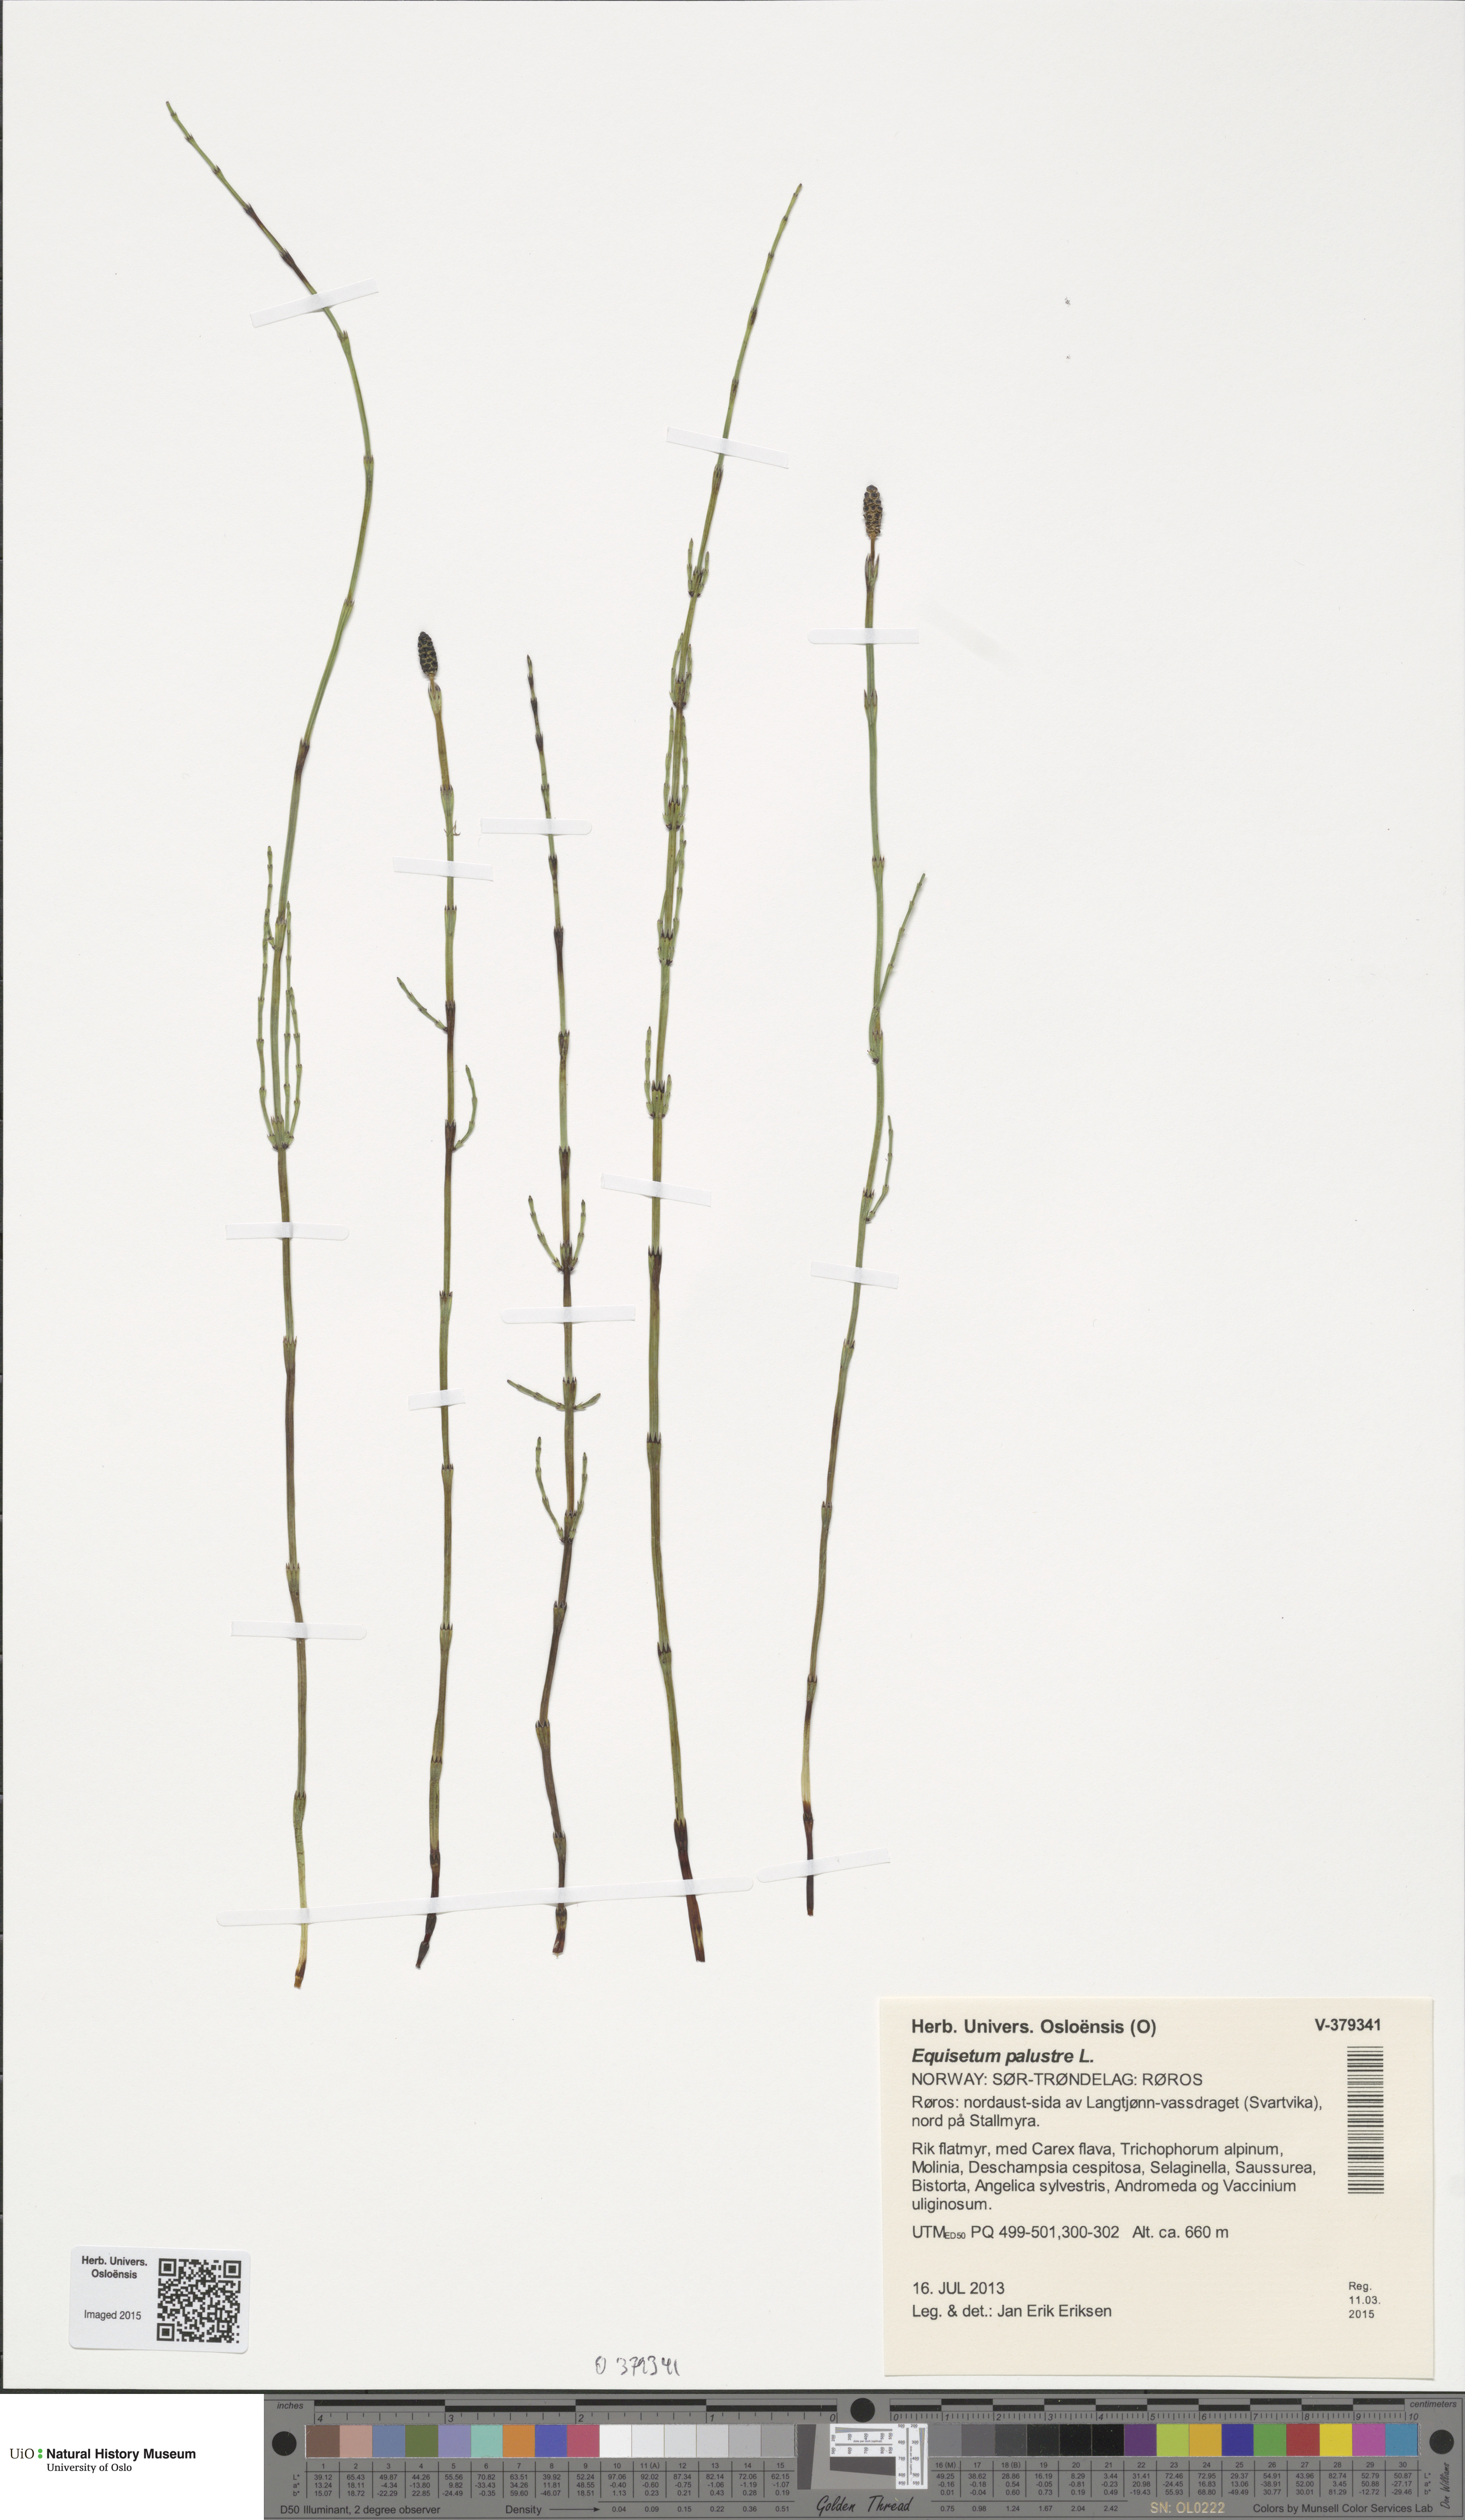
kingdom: Plantae
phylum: Tracheophyta
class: Polypodiopsida
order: Equisetales
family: Equisetaceae
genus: Equisetum
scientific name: Equisetum palustre
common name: Marsh horsetail
